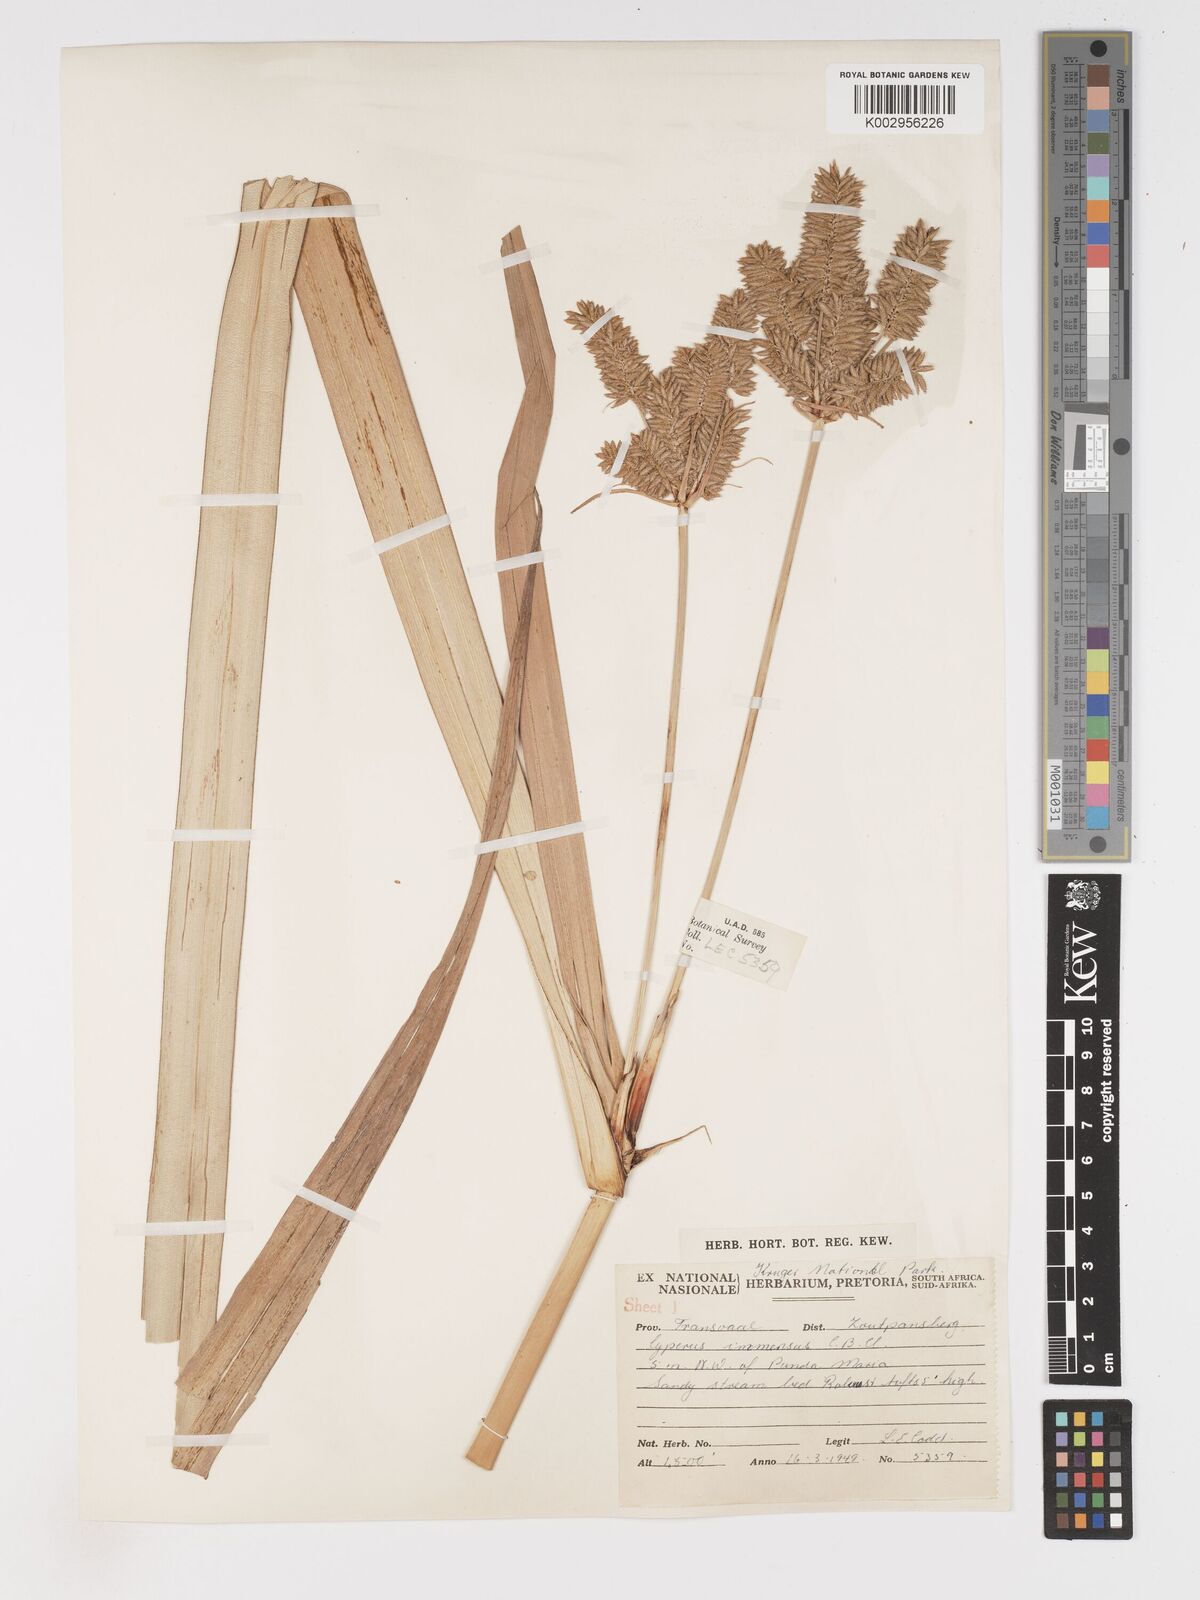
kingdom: Plantae
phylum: Tracheophyta
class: Liliopsida
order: Poales
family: Cyperaceae
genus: Cyperus
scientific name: Cyperus dives
